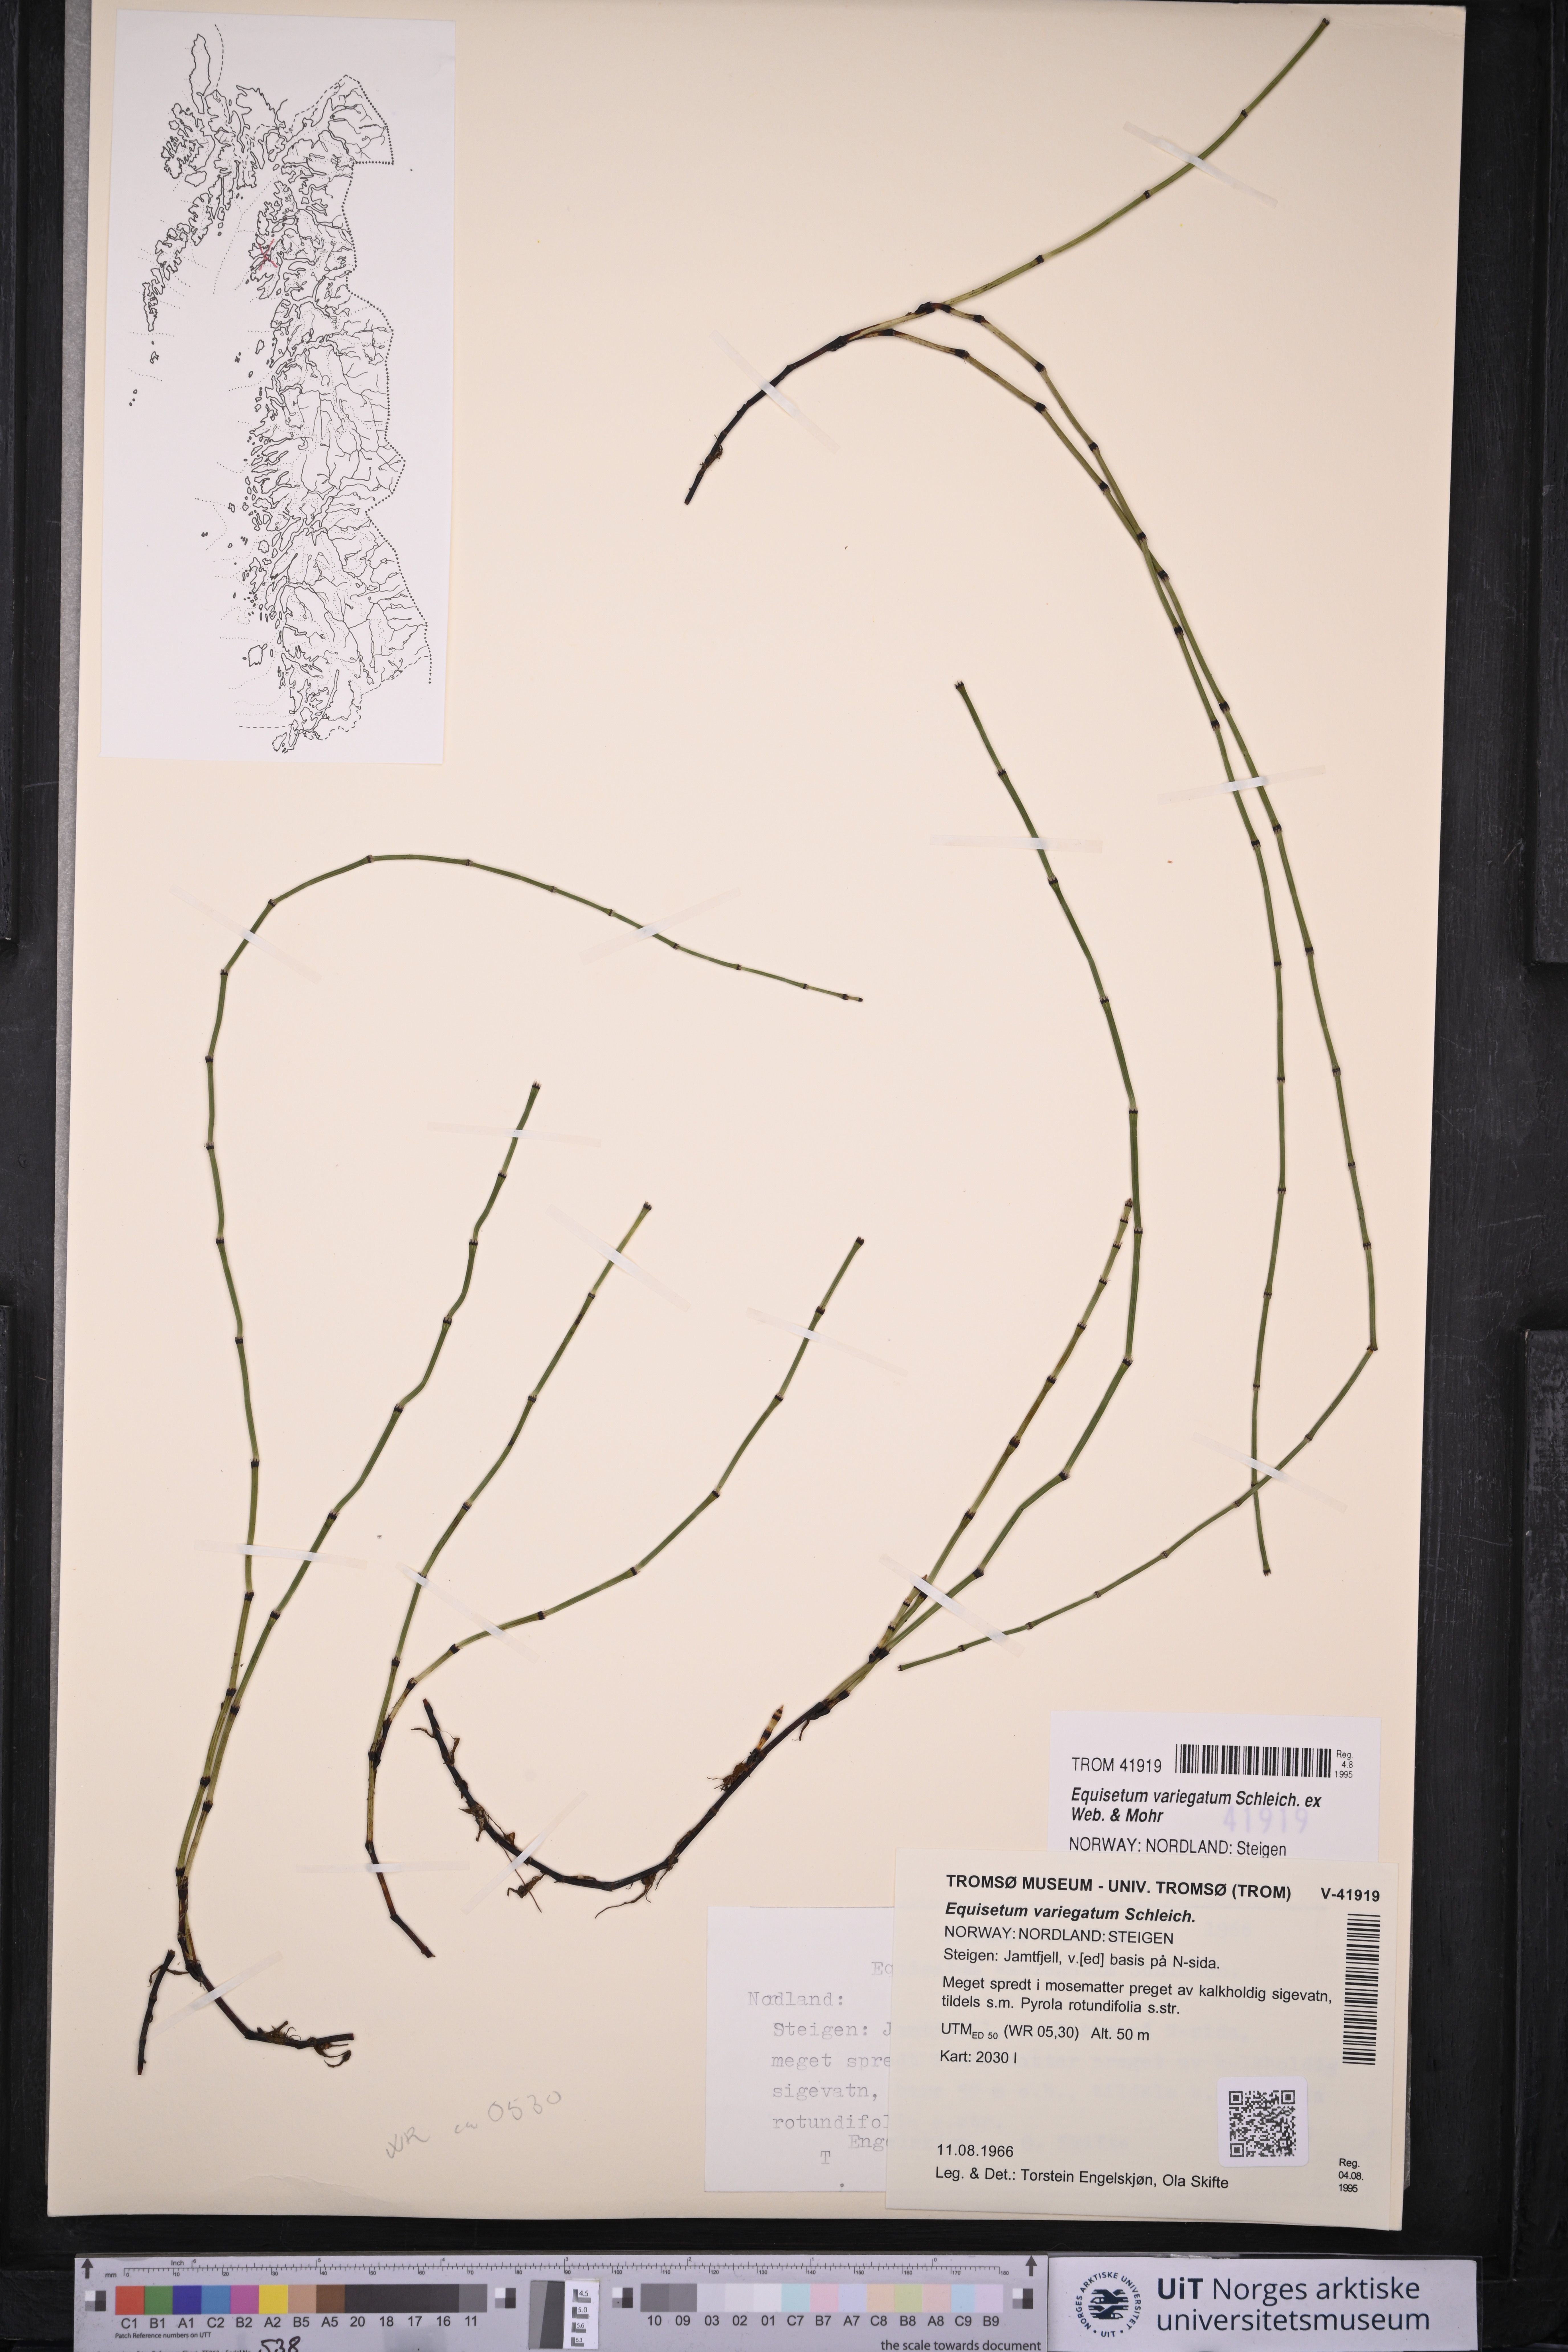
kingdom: Plantae
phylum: Tracheophyta
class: Polypodiopsida
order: Equisetales
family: Equisetaceae
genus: Equisetum
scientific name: Equisetum variegatum
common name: Variegated horsetail
